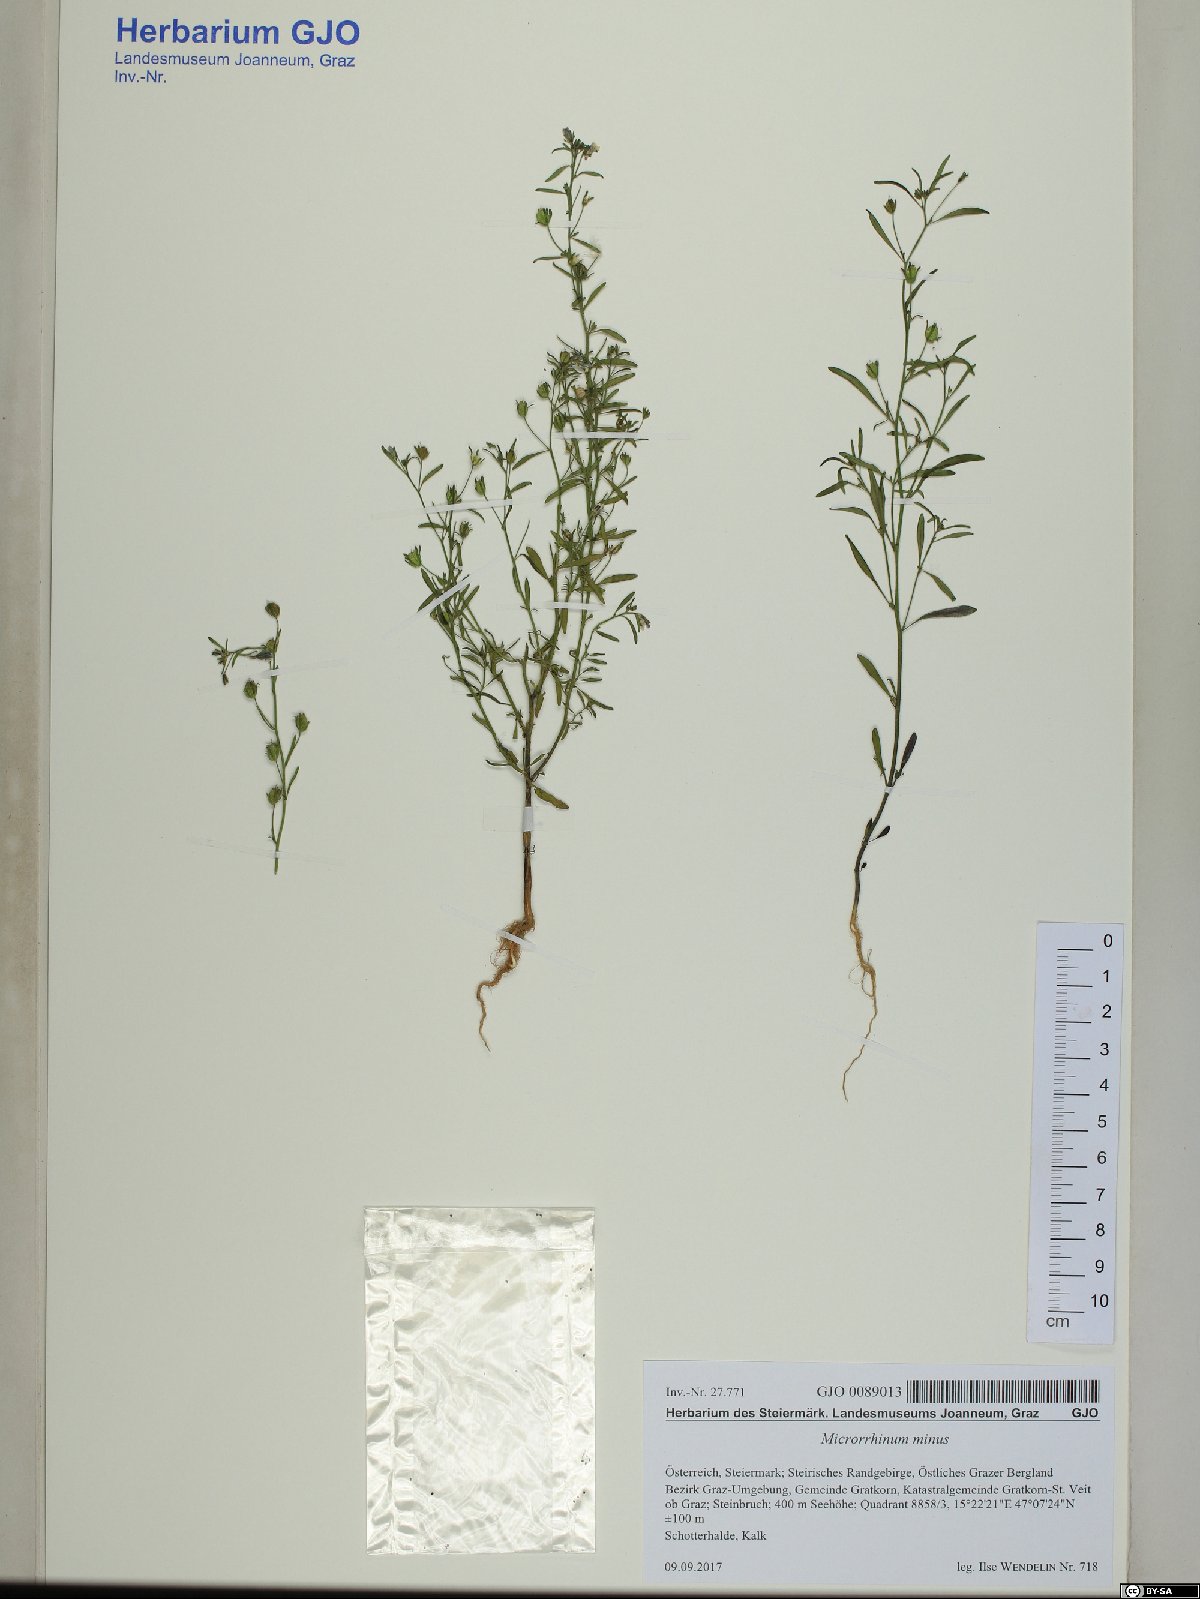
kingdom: Plantae
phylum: Tracheophyta
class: Magnoliopsida
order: Lamiales
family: Plantaginaceae
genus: Chaenorhinum
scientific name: Chaenorhinum minus
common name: Dwarf snapdragon
